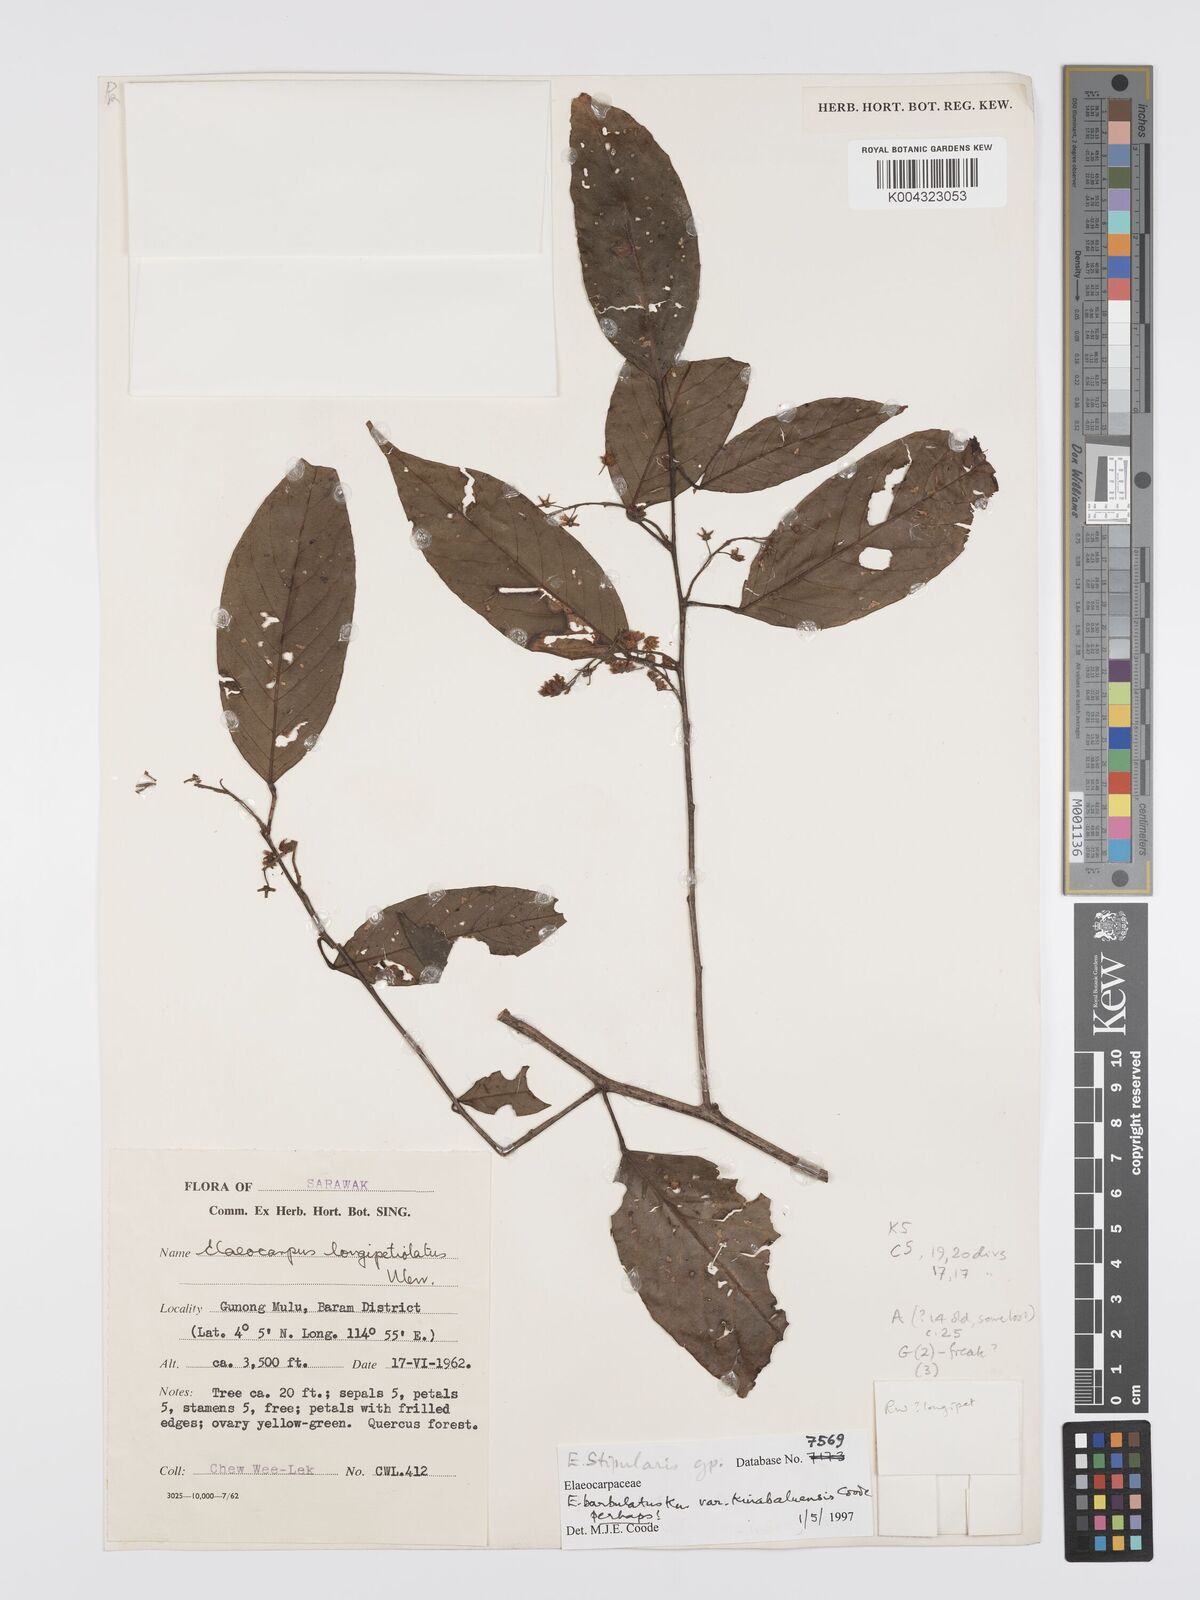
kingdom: Plantae
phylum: Tracheophyta
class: Magnoliopsida
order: Oxalidales
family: Elaeocarpaceae
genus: Elaeocarpus
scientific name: Elaeocarpus barbulatus
